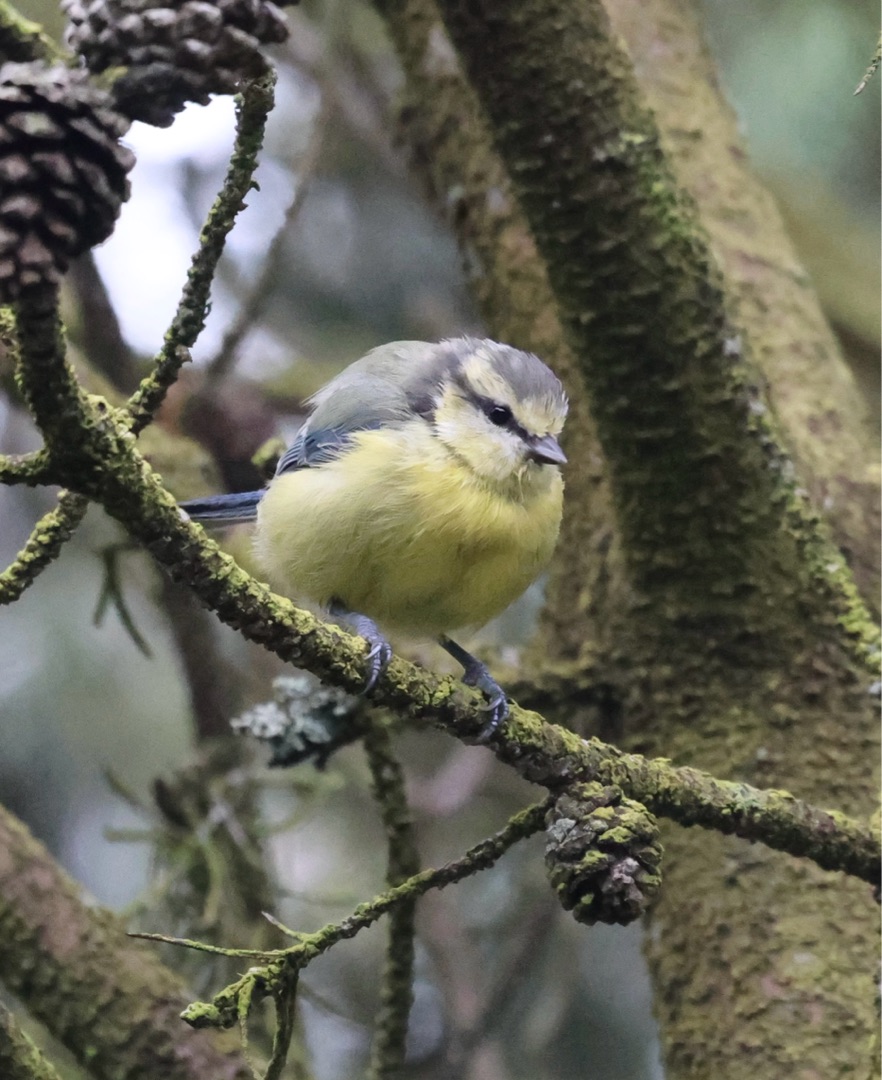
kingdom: Animalia
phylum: Chordata
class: Aves
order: Passeriformes
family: Paridae
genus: Cyanistes
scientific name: Cyanistes caeruleus
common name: Blåmejse
